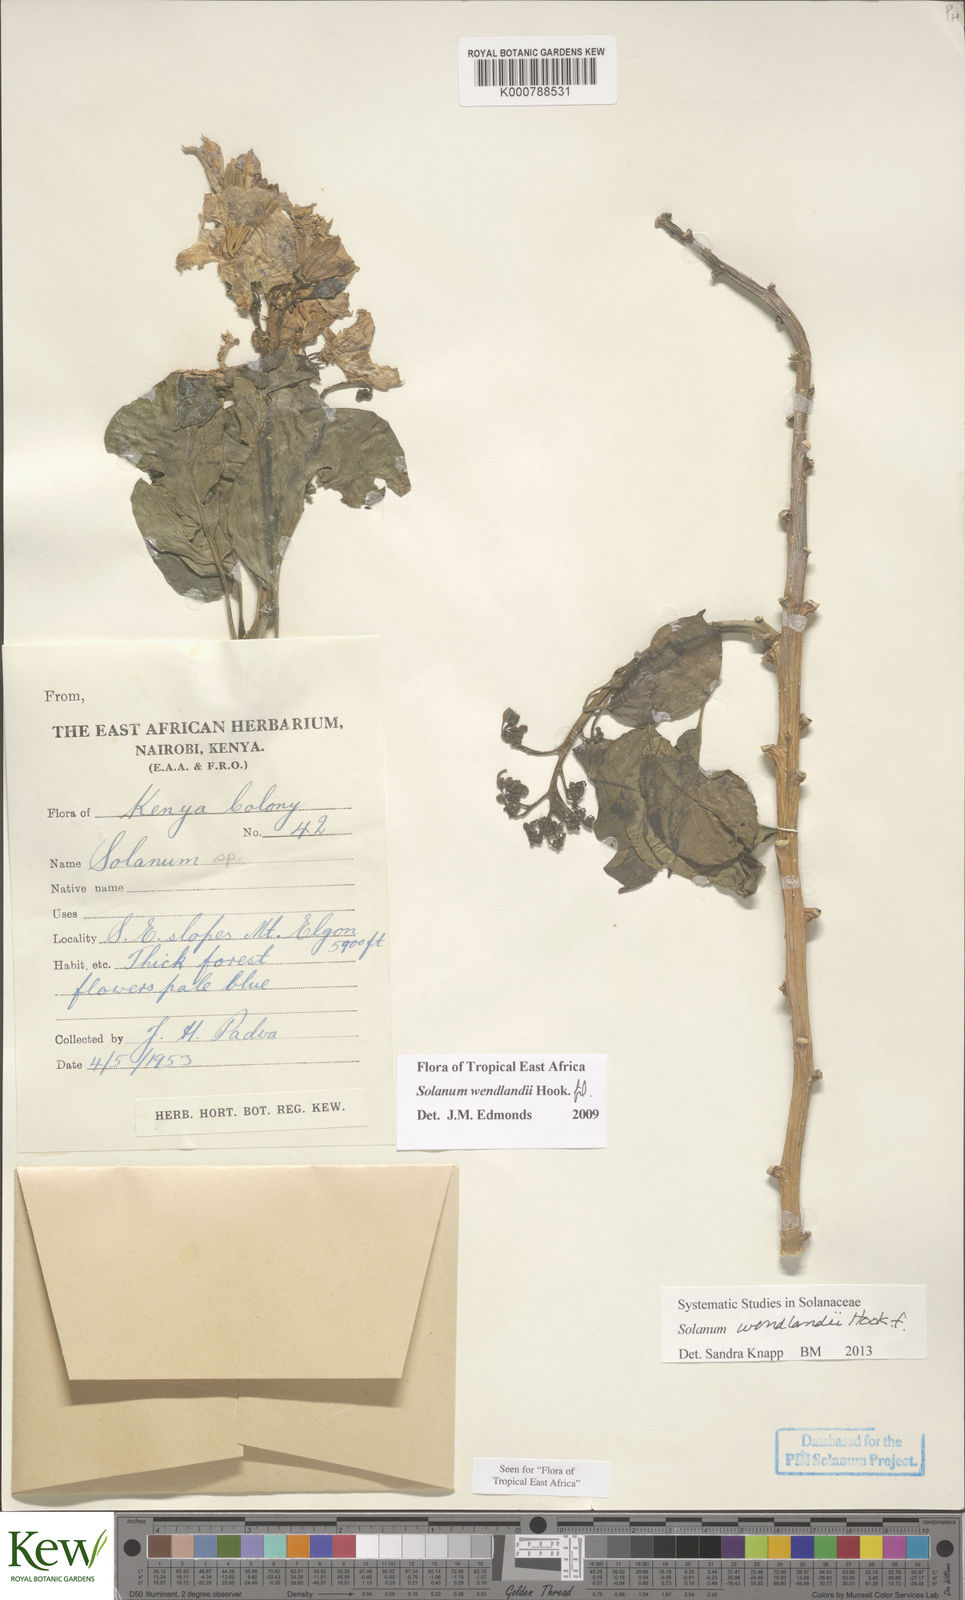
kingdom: Plantae
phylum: Tracheophyta
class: Magnoliopsida
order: Solanales
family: Solanaceae
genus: Solanum
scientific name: Solanum wendlandii
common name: Costa rican nightshade
